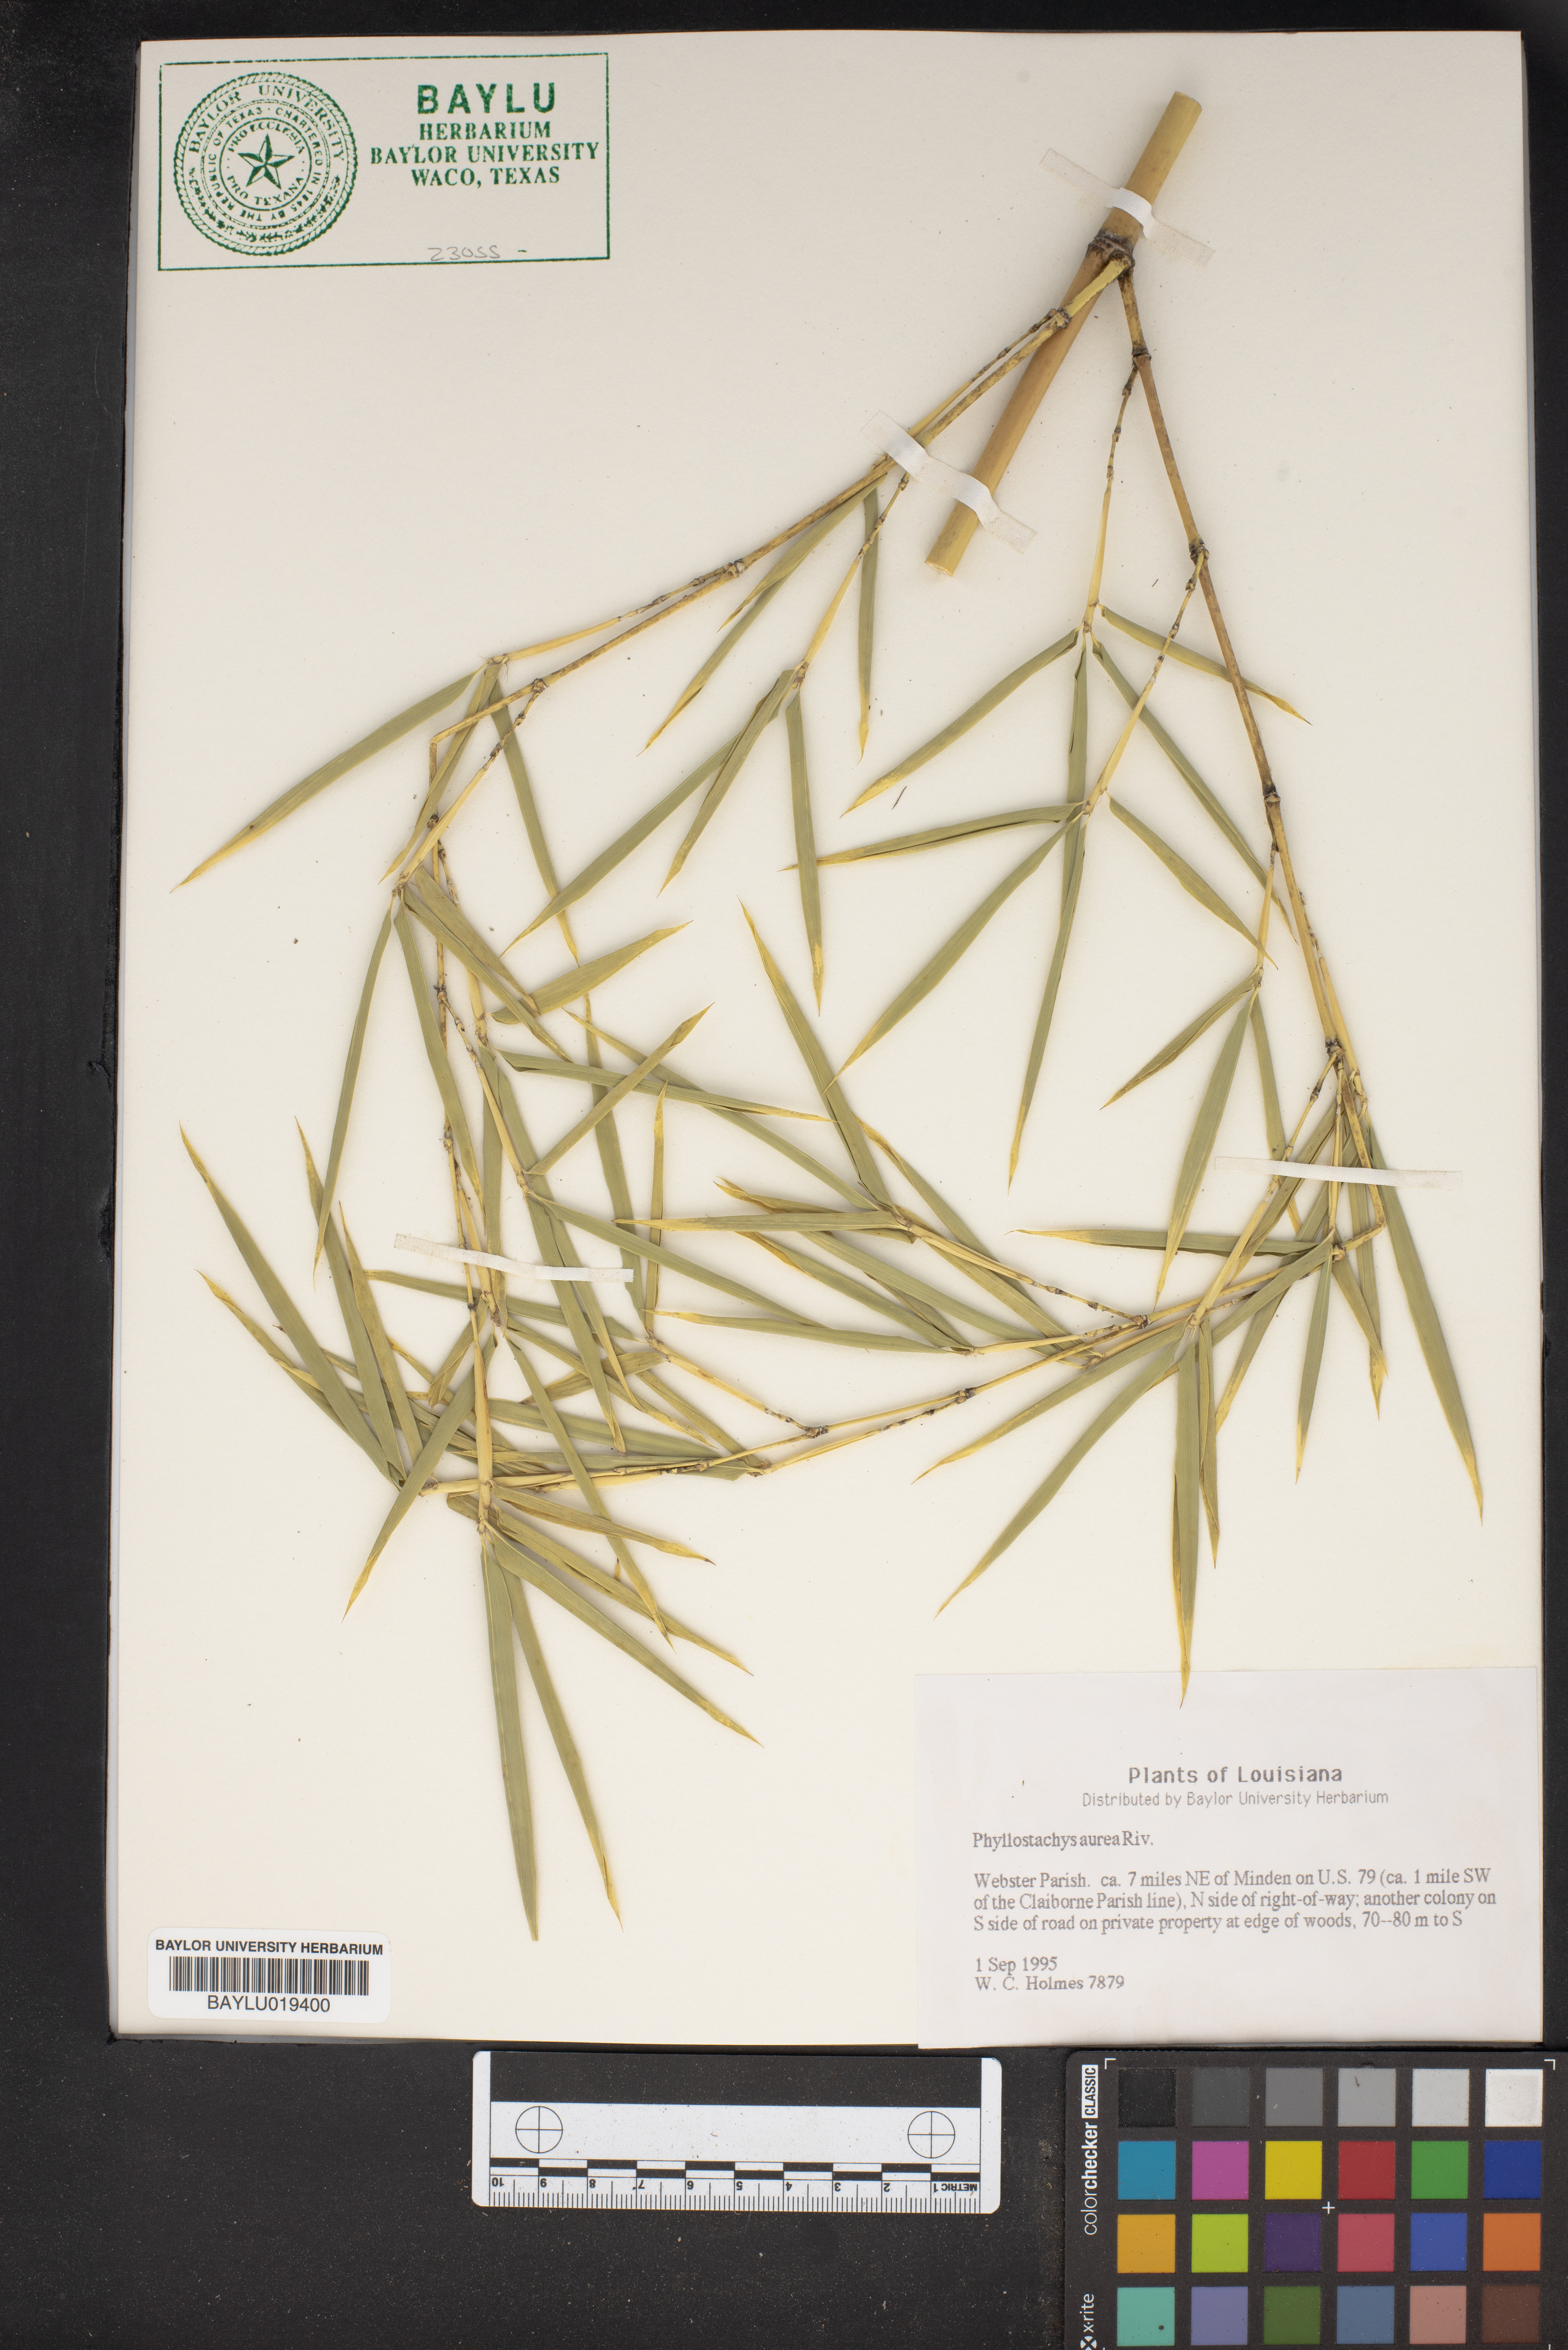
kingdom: Plantae
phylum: Tracheophyta
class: Liliopsida
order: Poales
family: Poaceae
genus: Phyllostachys
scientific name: Phyllostachys aurea
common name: Golden bamboo
